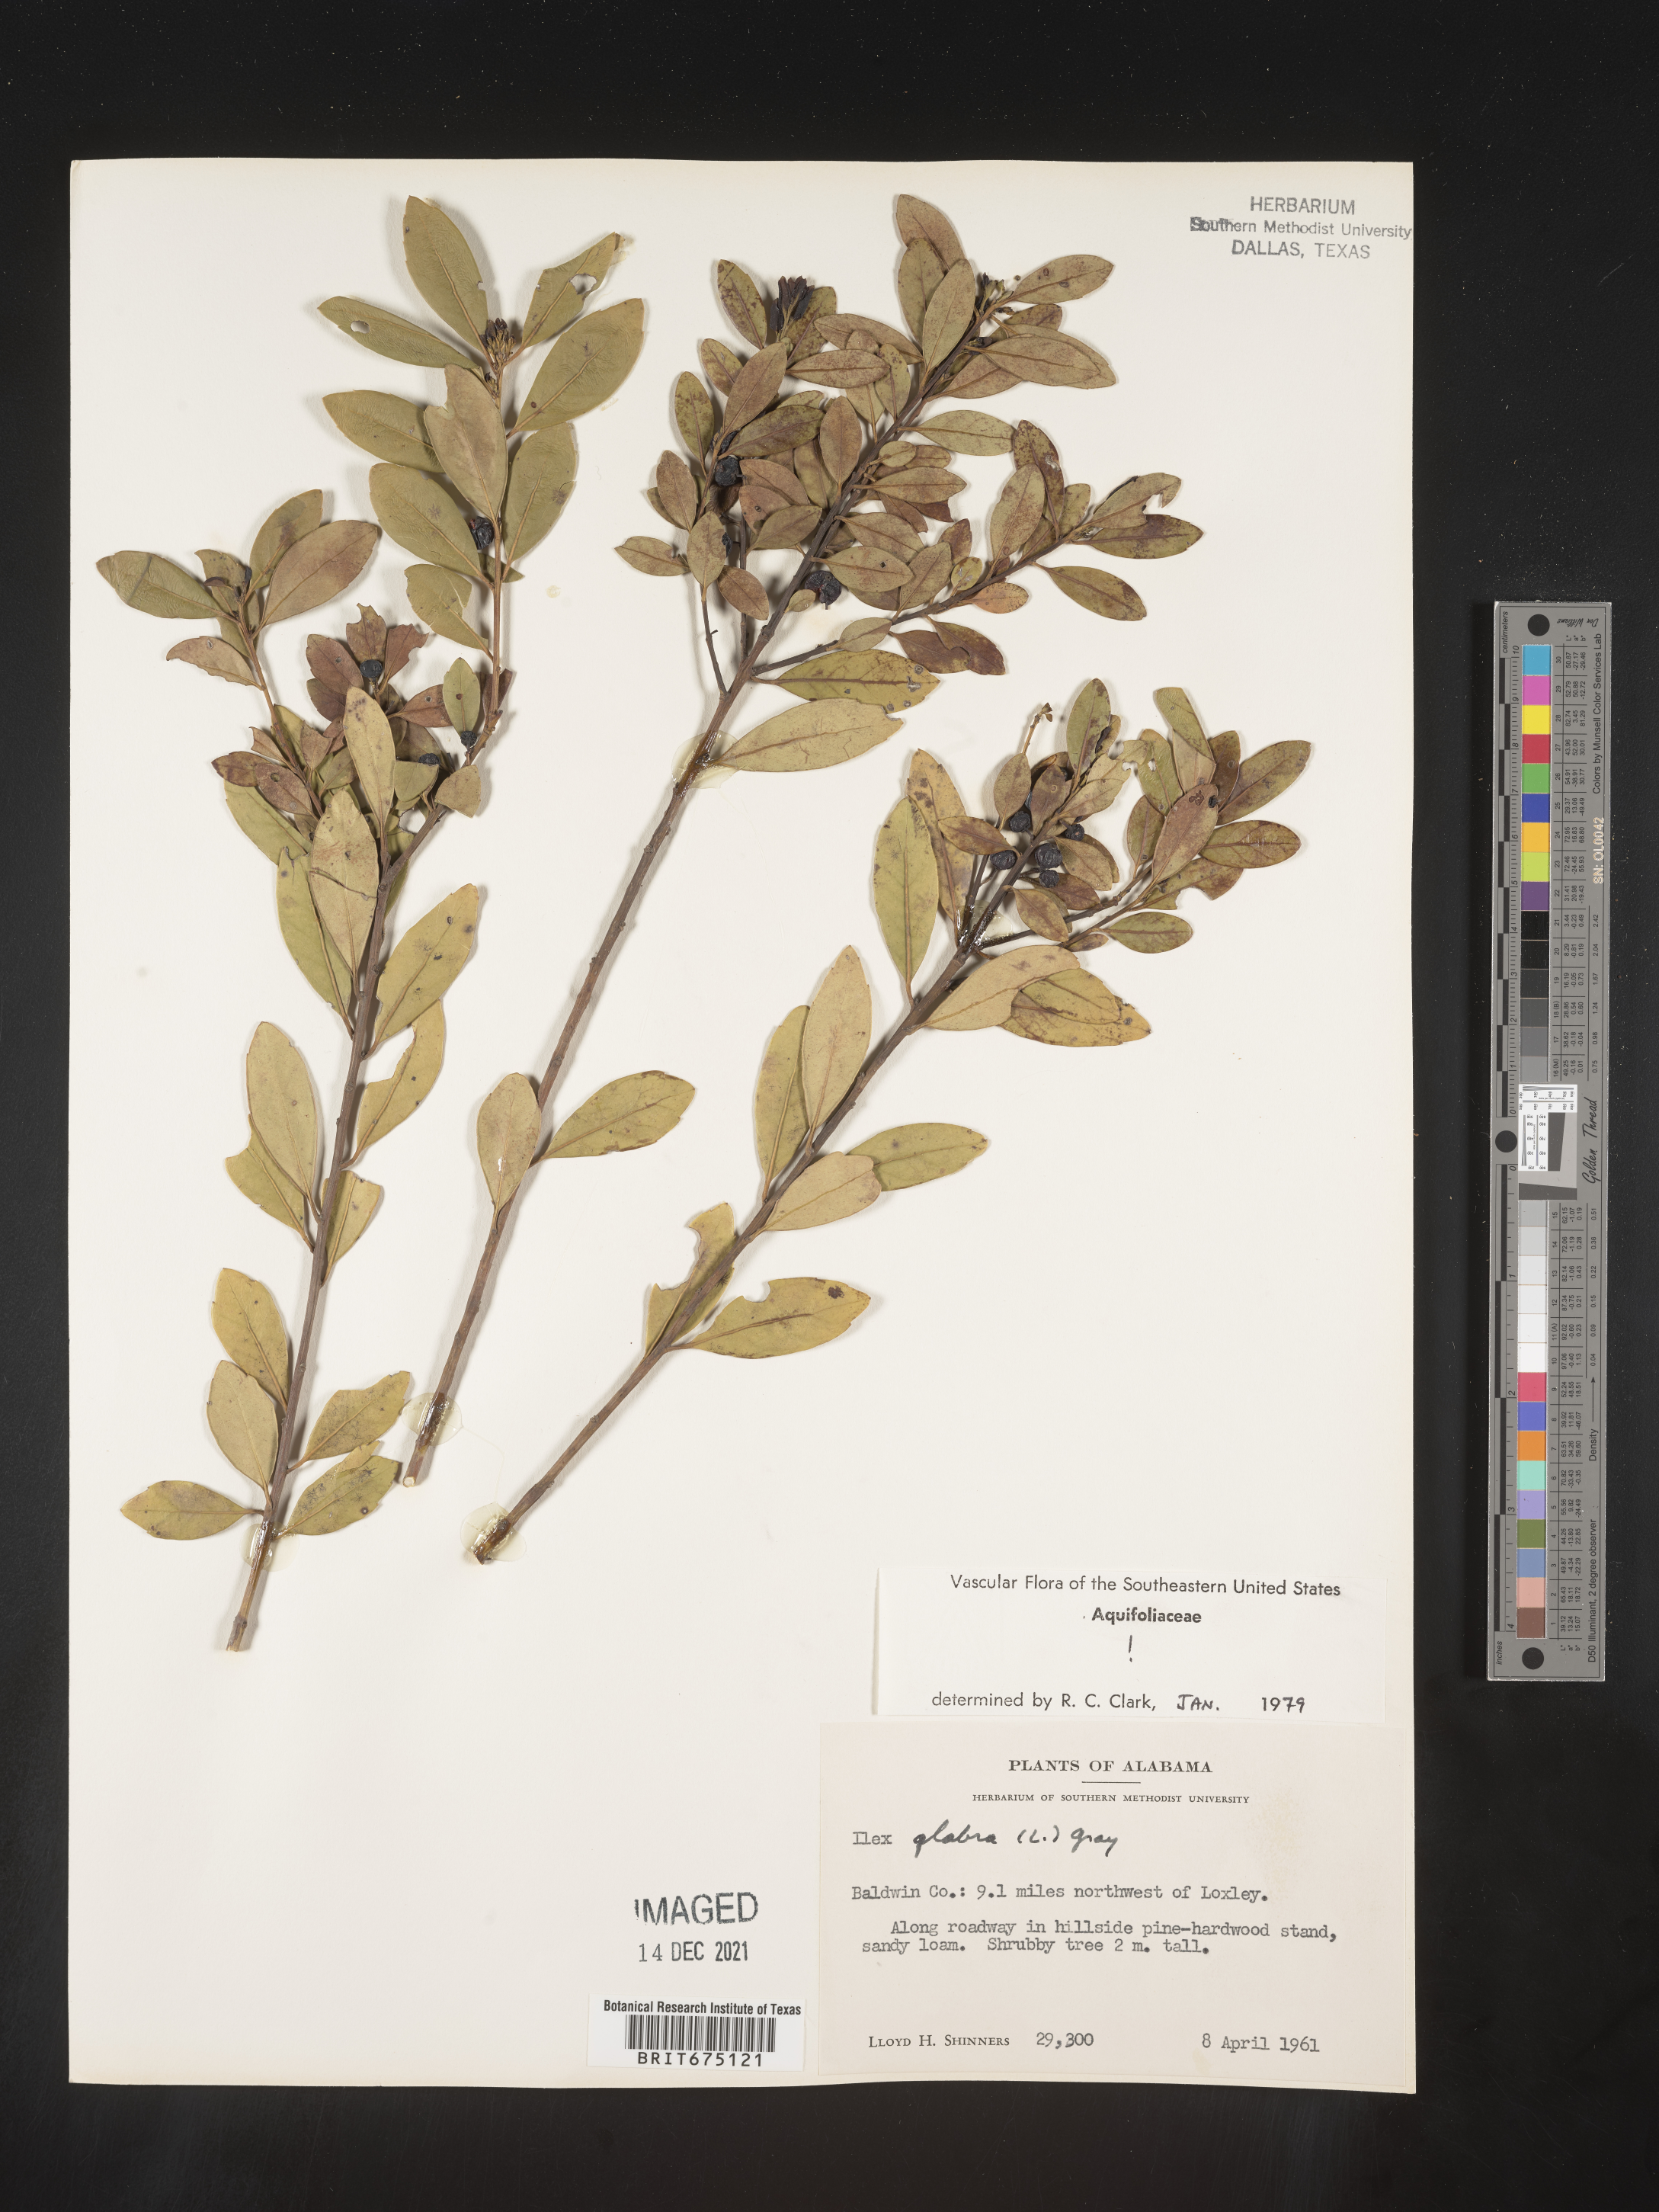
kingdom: Plantae
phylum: Tracheophyta
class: Magnoliopsida
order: Aquifoliales
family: Aquifoliaceae
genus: Ilex
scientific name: Ilex glabra
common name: Bitter gallberry
